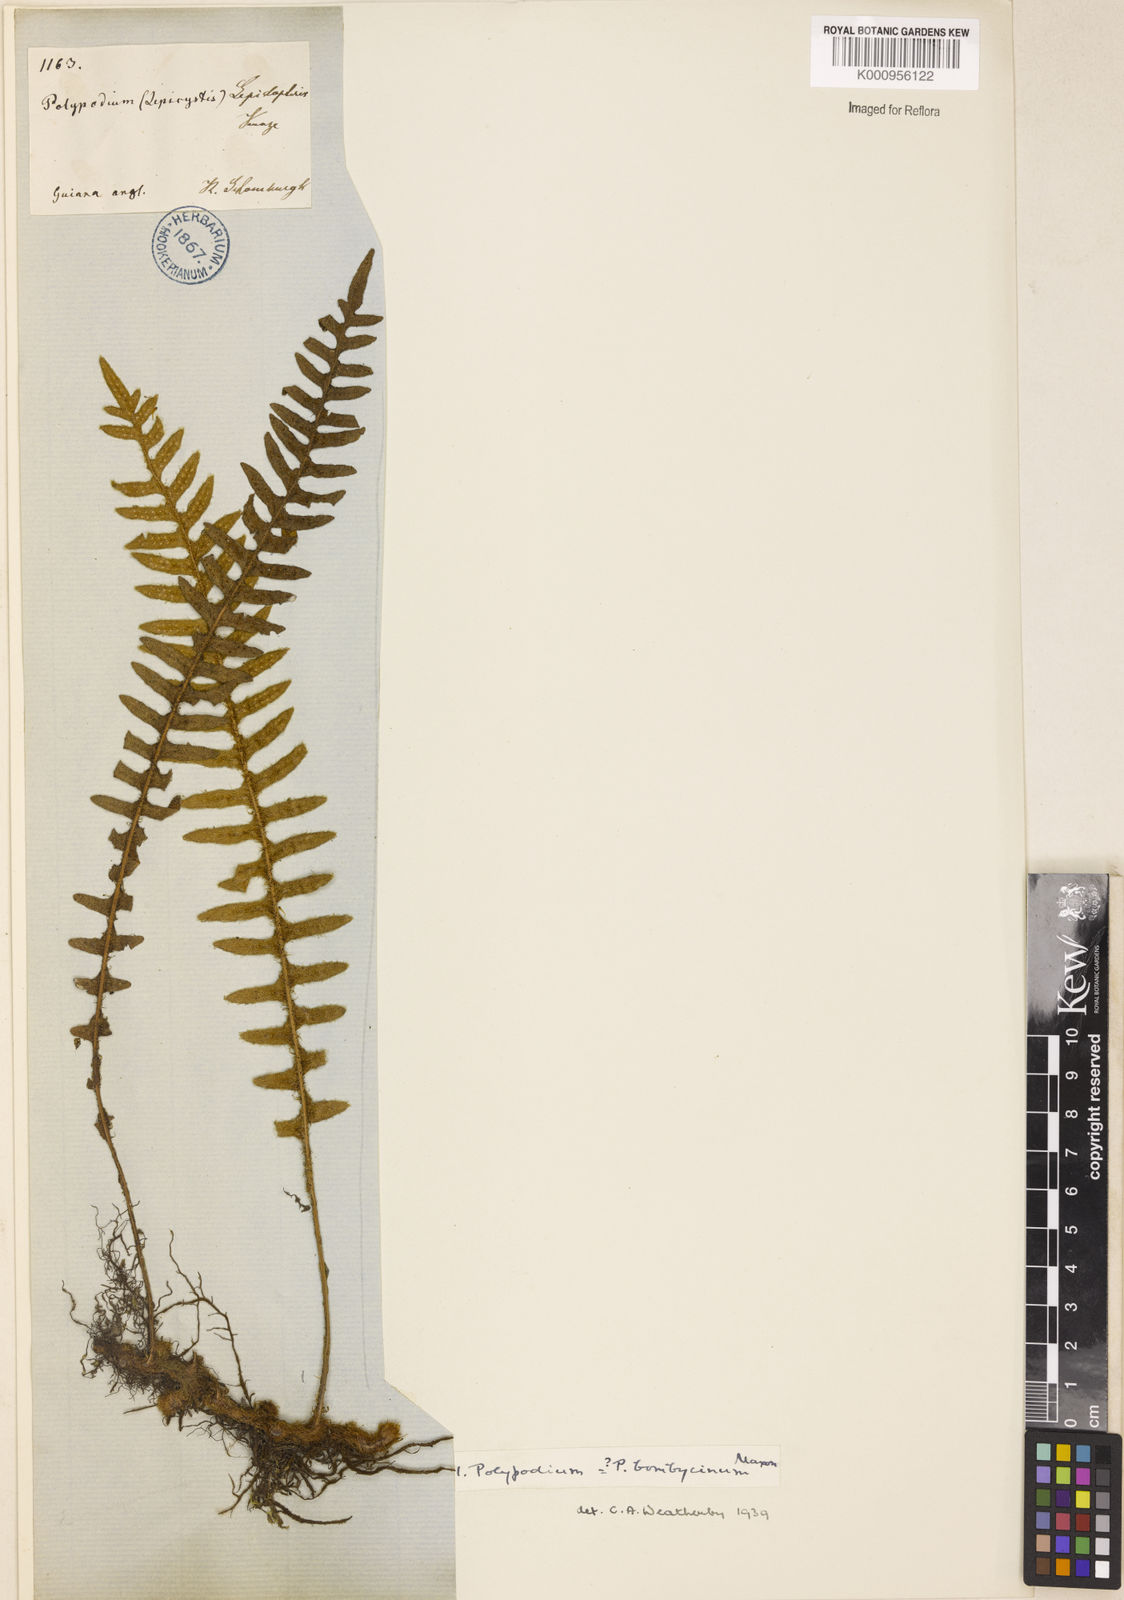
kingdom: Plantae
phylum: Tracheophyta
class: Polypodiopsida
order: Polypodiales
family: Polypodiaceae
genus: Pleopeltis
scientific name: Pleopeltis bombycina
